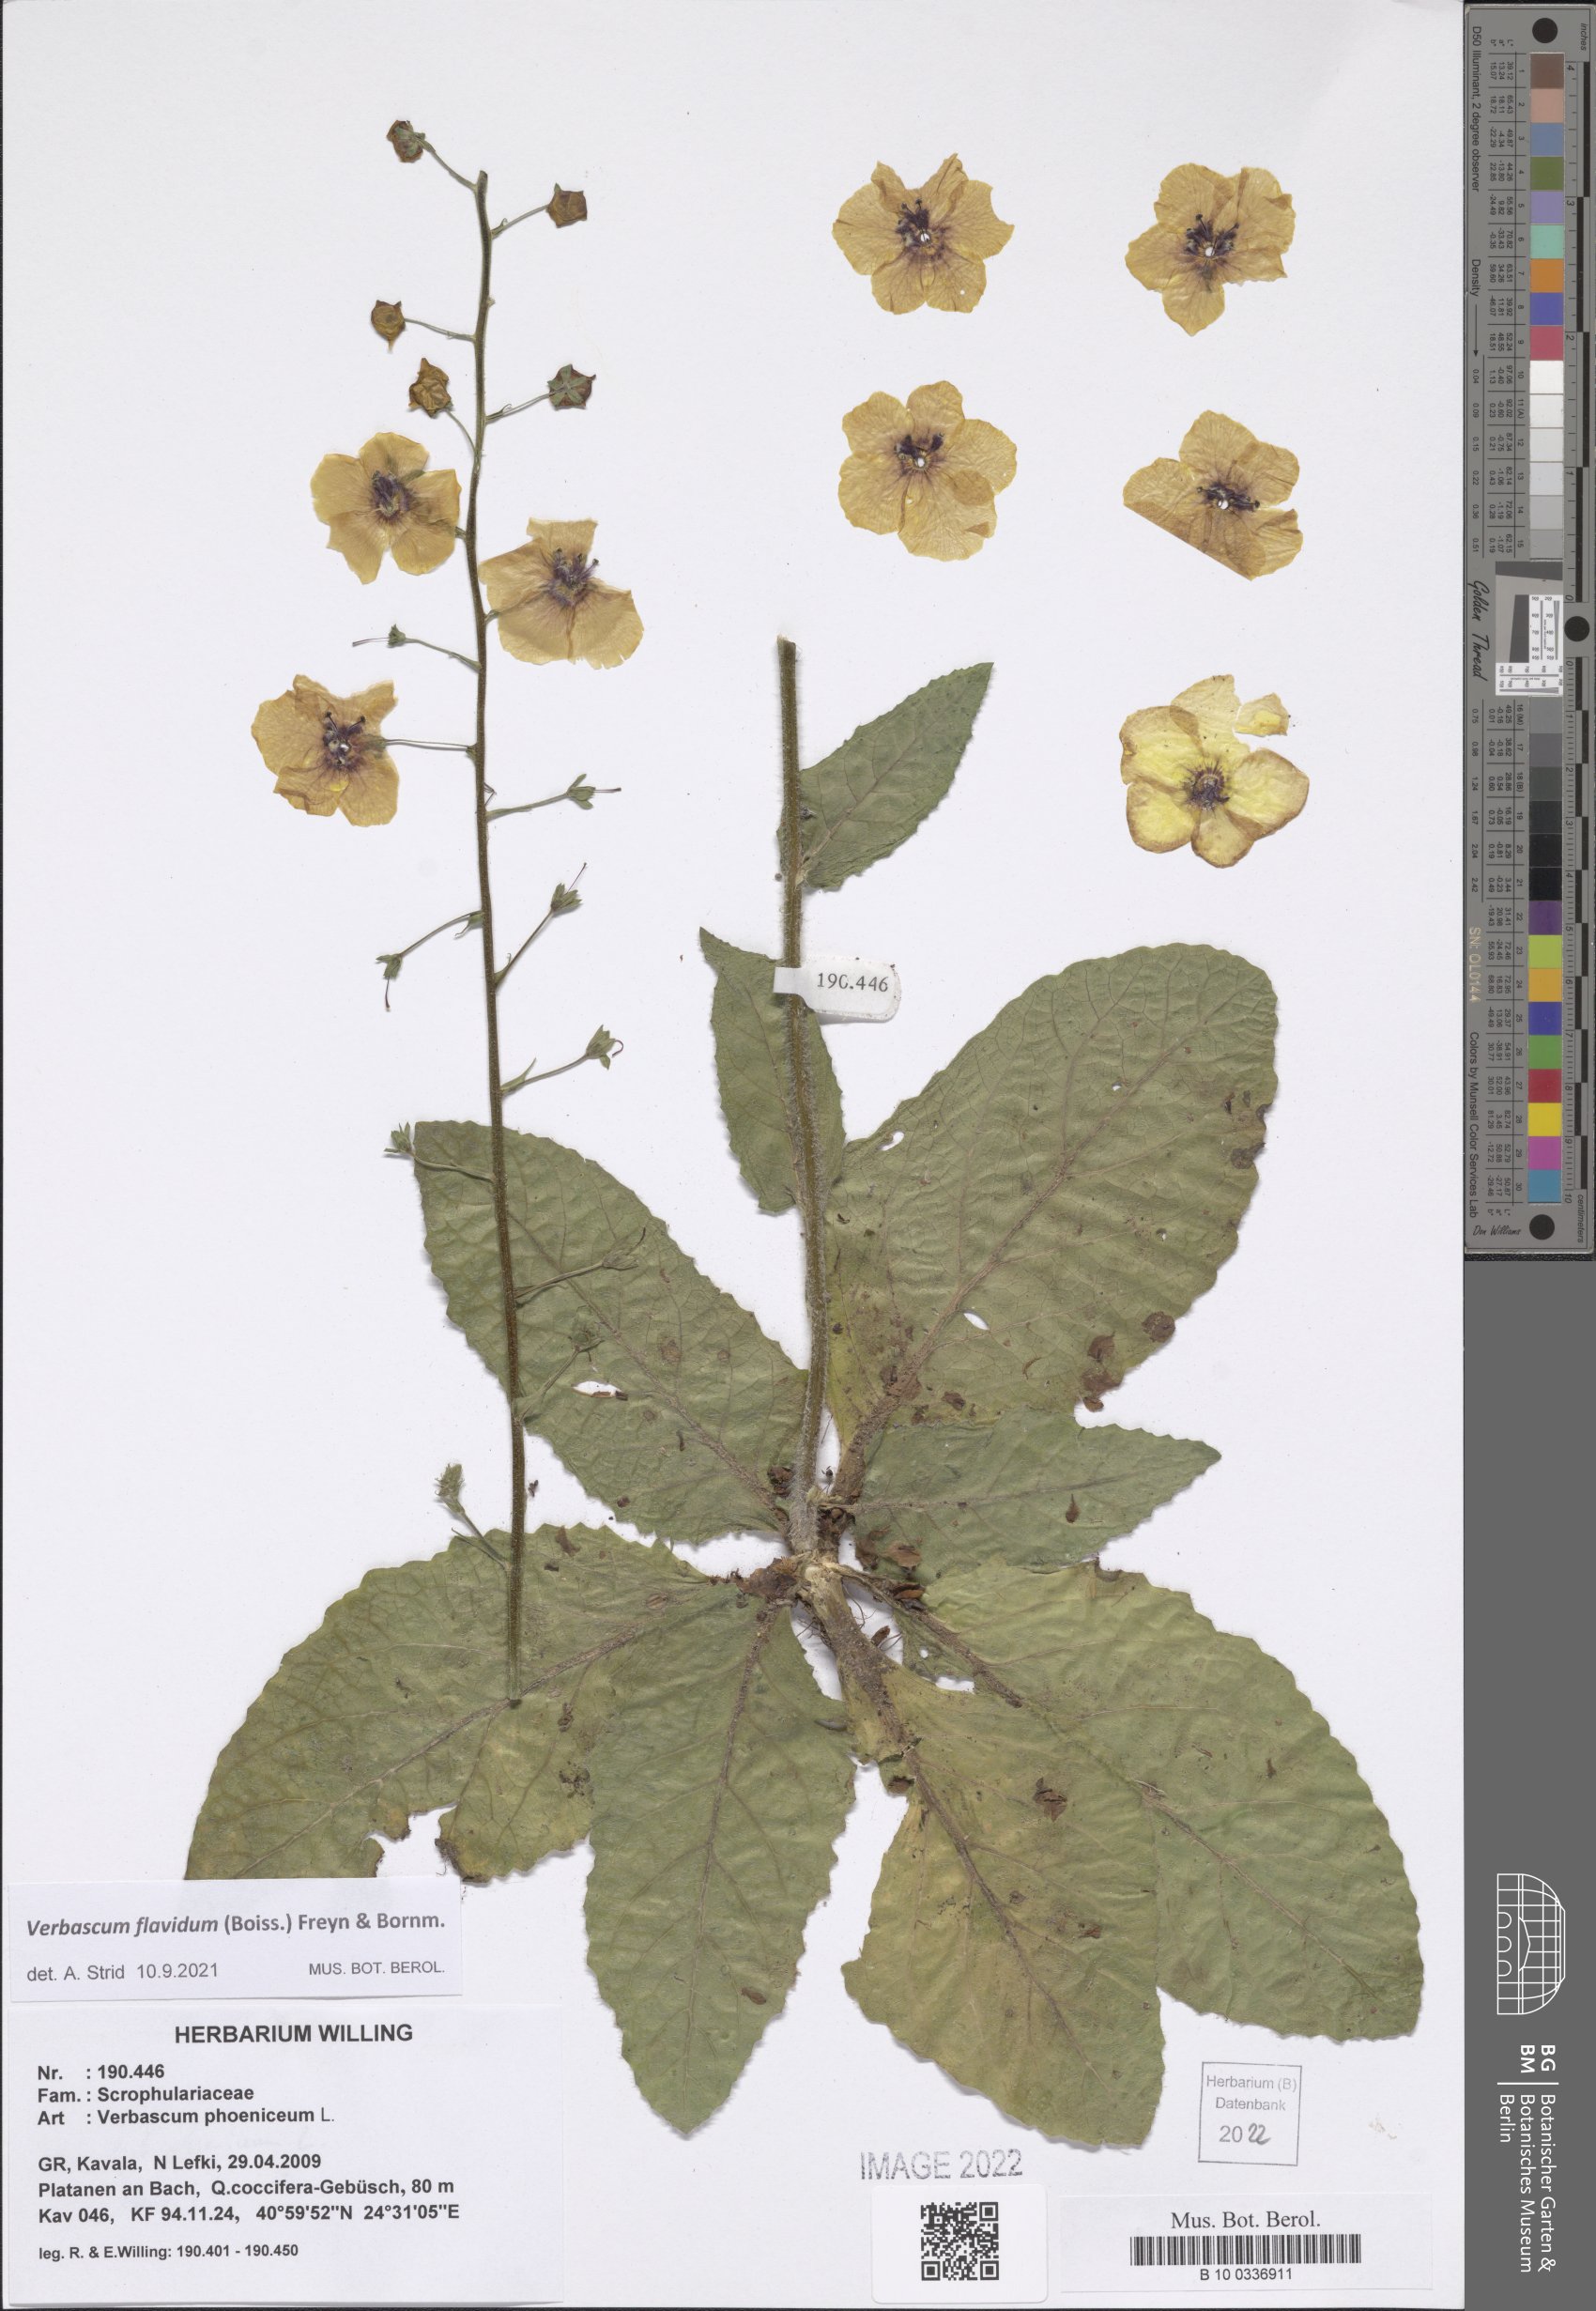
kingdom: Plantae
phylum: Tracheophyta
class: Magnoliopsida
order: Lamiales
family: Scrophulariaceae
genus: Verbascum
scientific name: Verbascum flavidum
